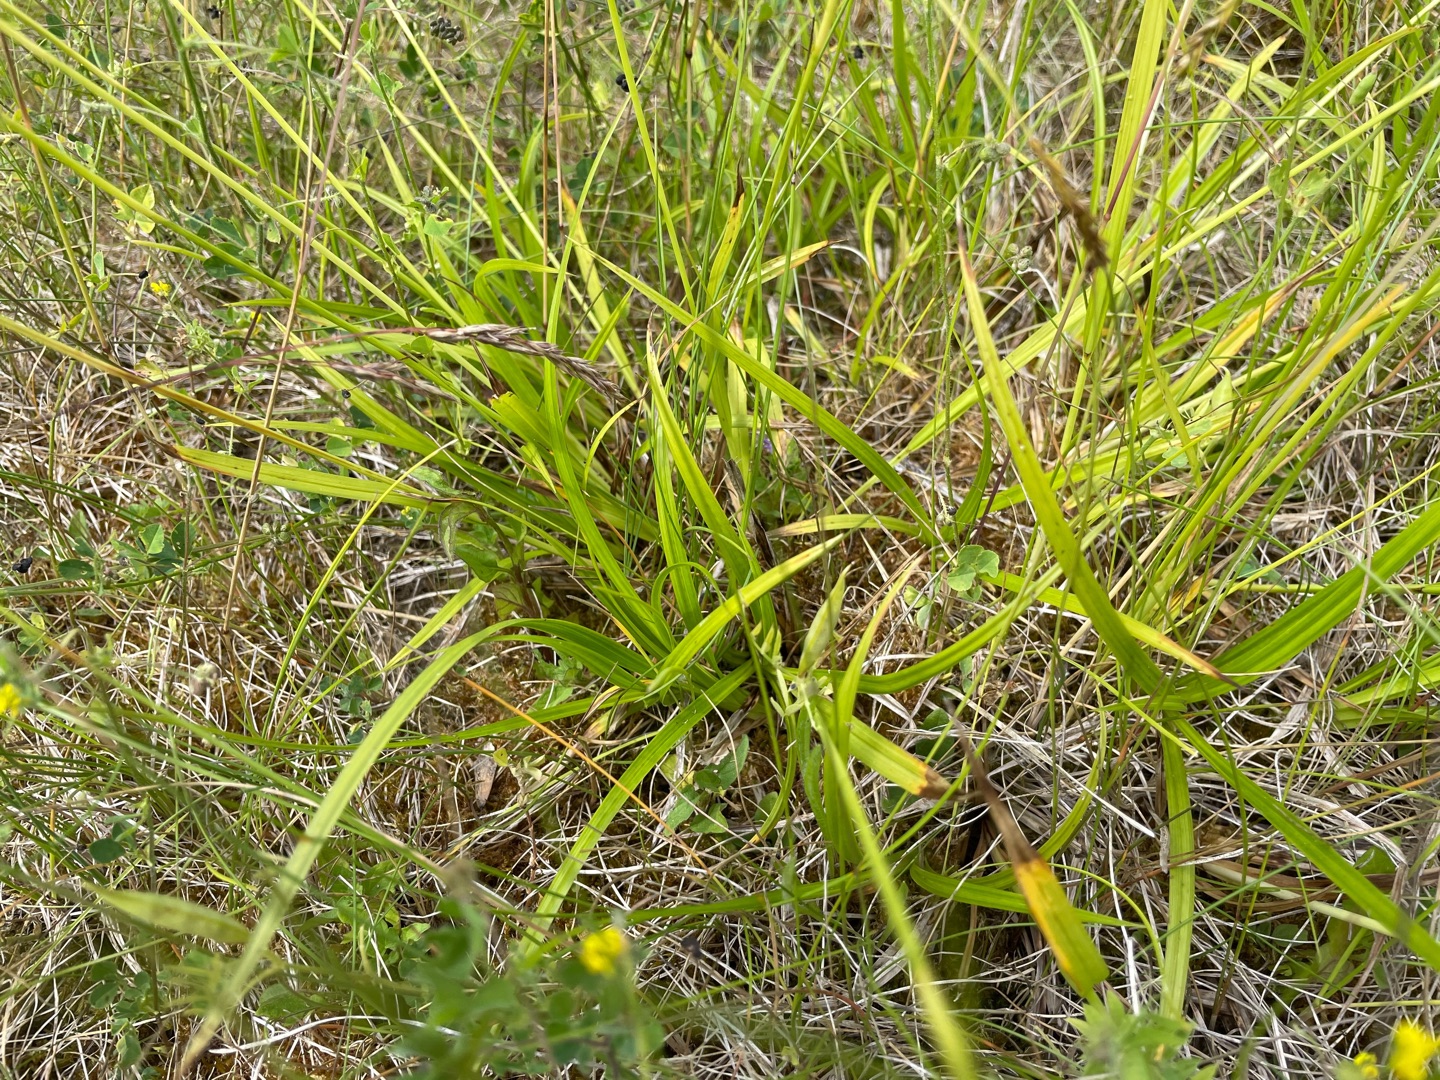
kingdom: Plantae
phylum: Tracheophyta
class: Liliopsida
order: Poales
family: Cyperaceae
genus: Carex
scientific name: Carex sylvatica
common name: Skov-star
